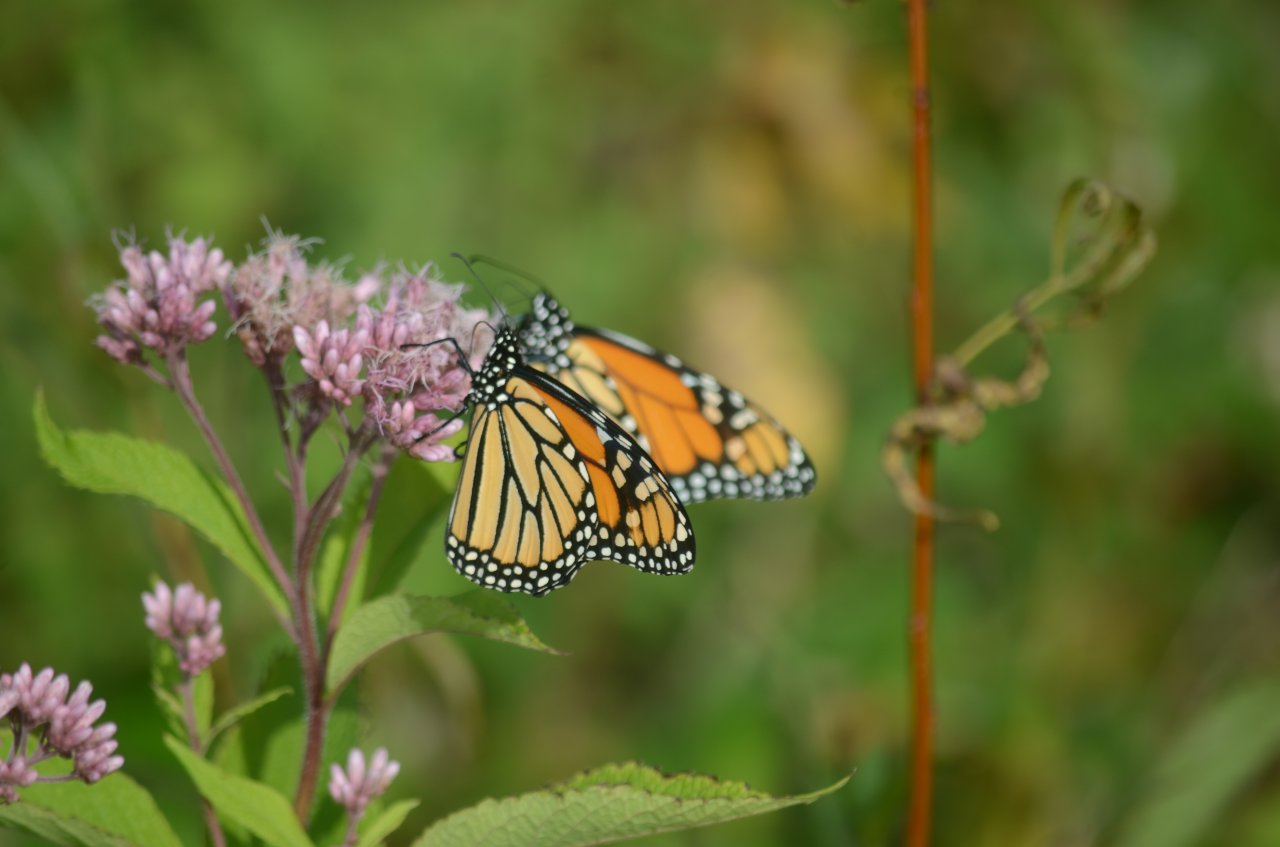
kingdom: Animalia
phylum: Arthropoda
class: Insecta
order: Lepidoptera
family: Nymphalidae
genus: Danaus
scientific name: Danaus plexippus
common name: Monarch
